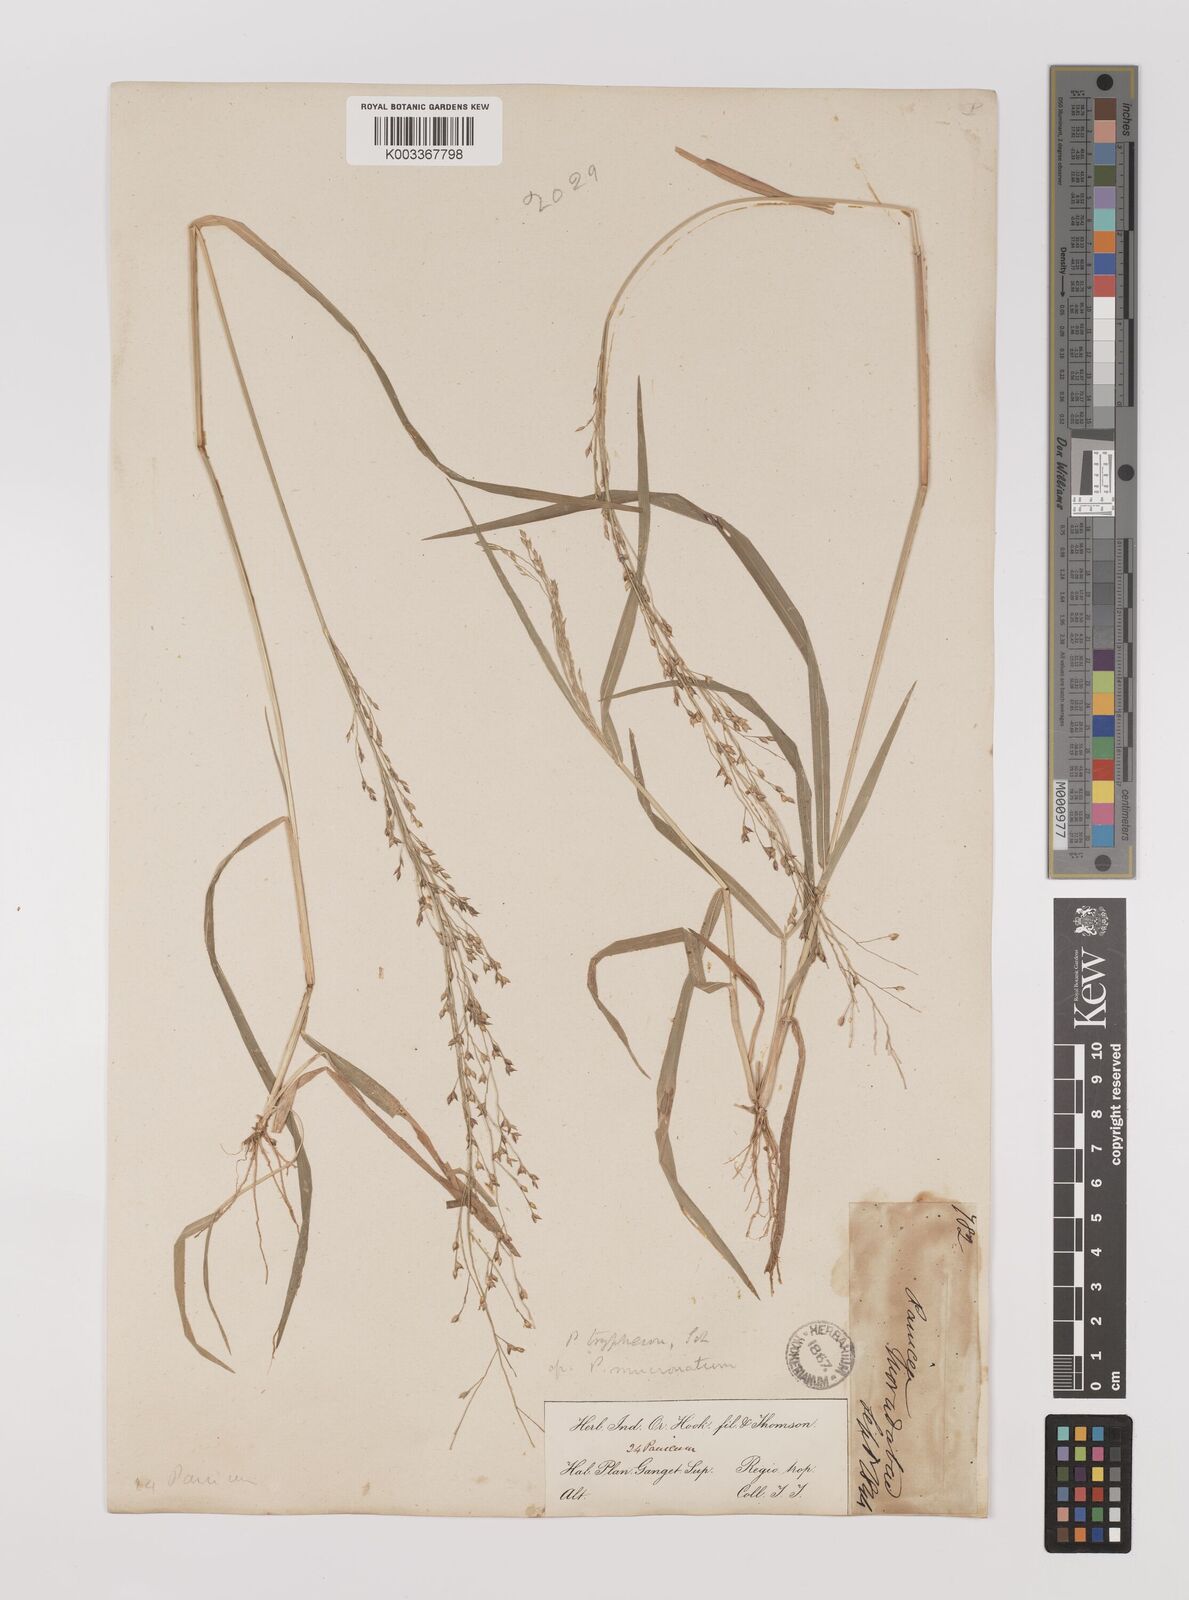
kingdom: Plantae
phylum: Tracheophyta
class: Liliopsida
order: Poales
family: Poaceae
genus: Panicum
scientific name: Panicum curviflorum
